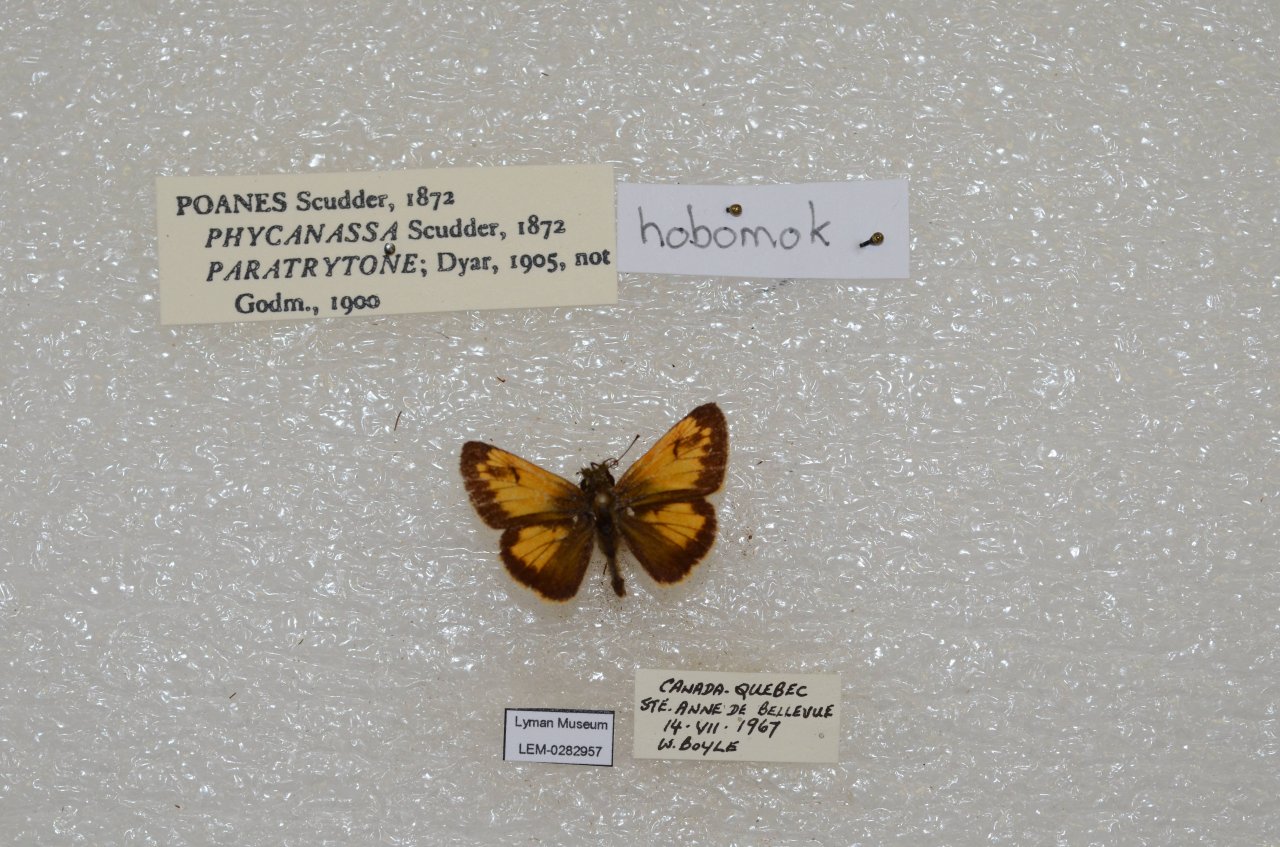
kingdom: Animalia
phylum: Arthropoda
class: Insecta
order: Lepidoptera
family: Hesperiidae
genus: Lon
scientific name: Lon hobomok
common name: Hobomok Skipper
